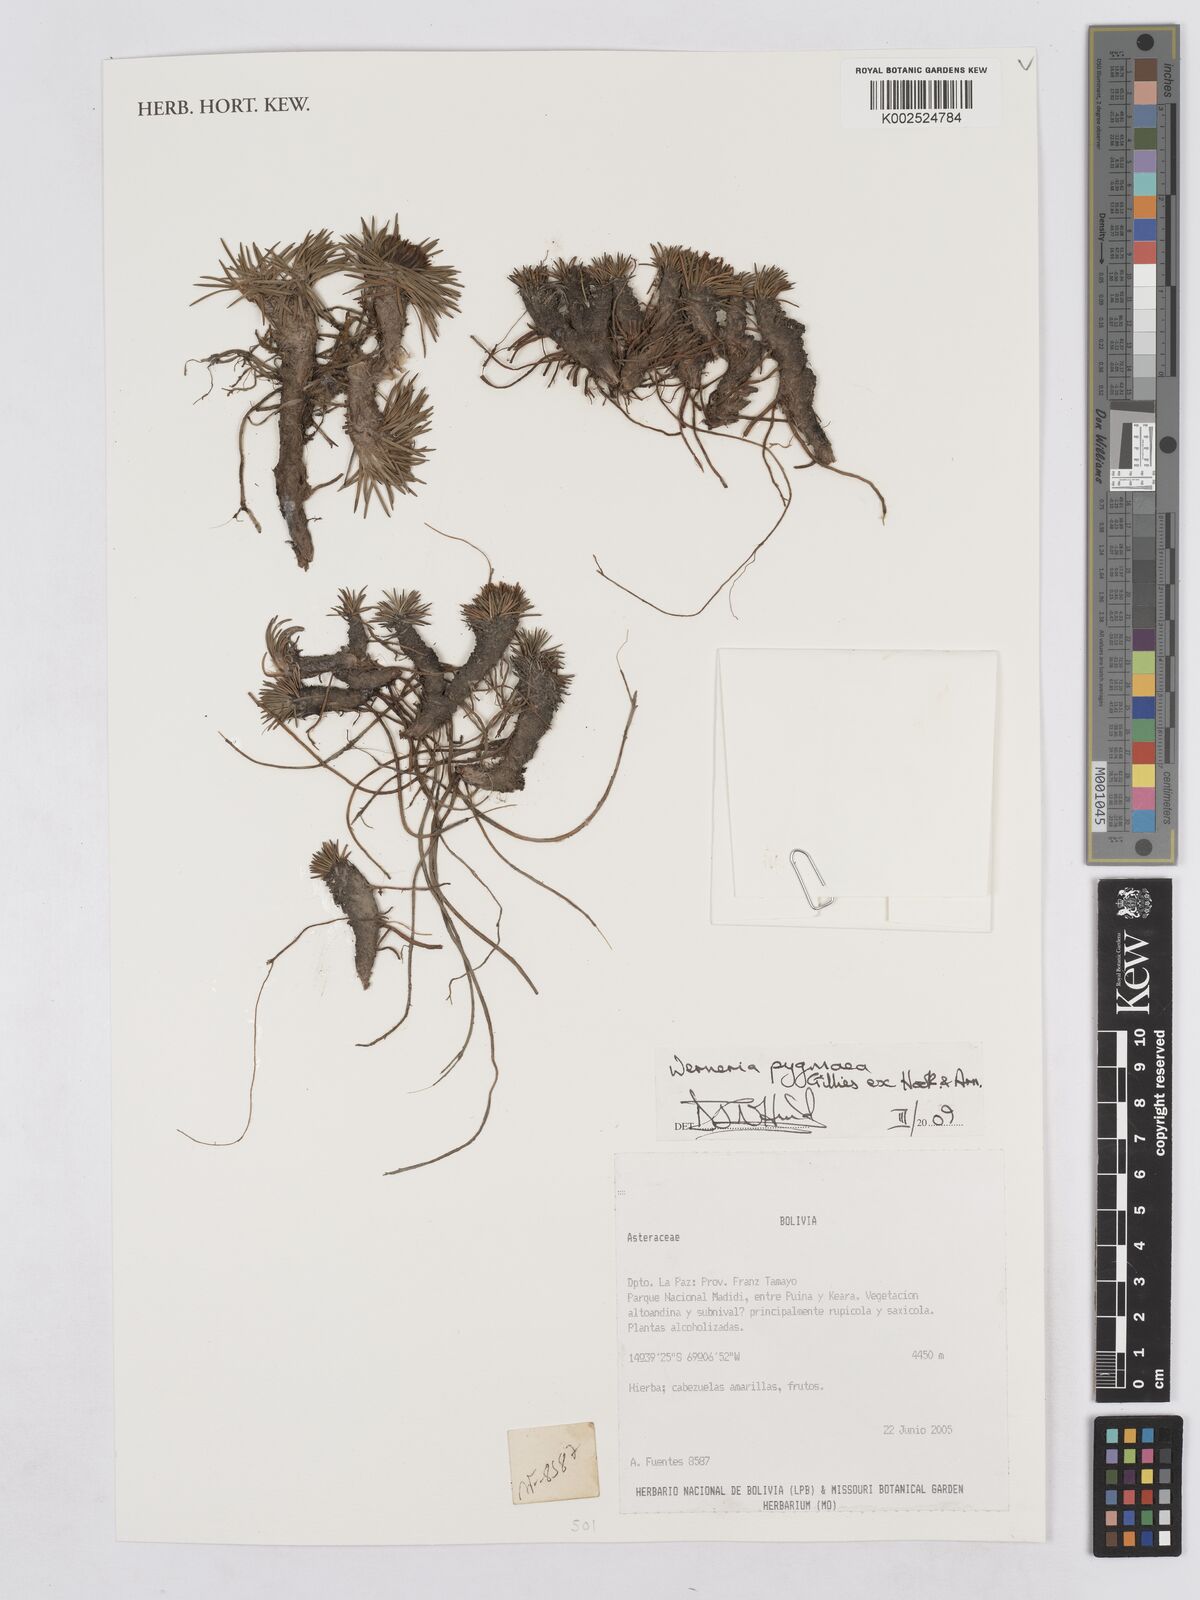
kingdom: Plantae
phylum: Tracheophyta
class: Magnoliopsida
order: Asterales
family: Asteraceae
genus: Rockhausenia
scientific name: Rockhausenia pygmaea
